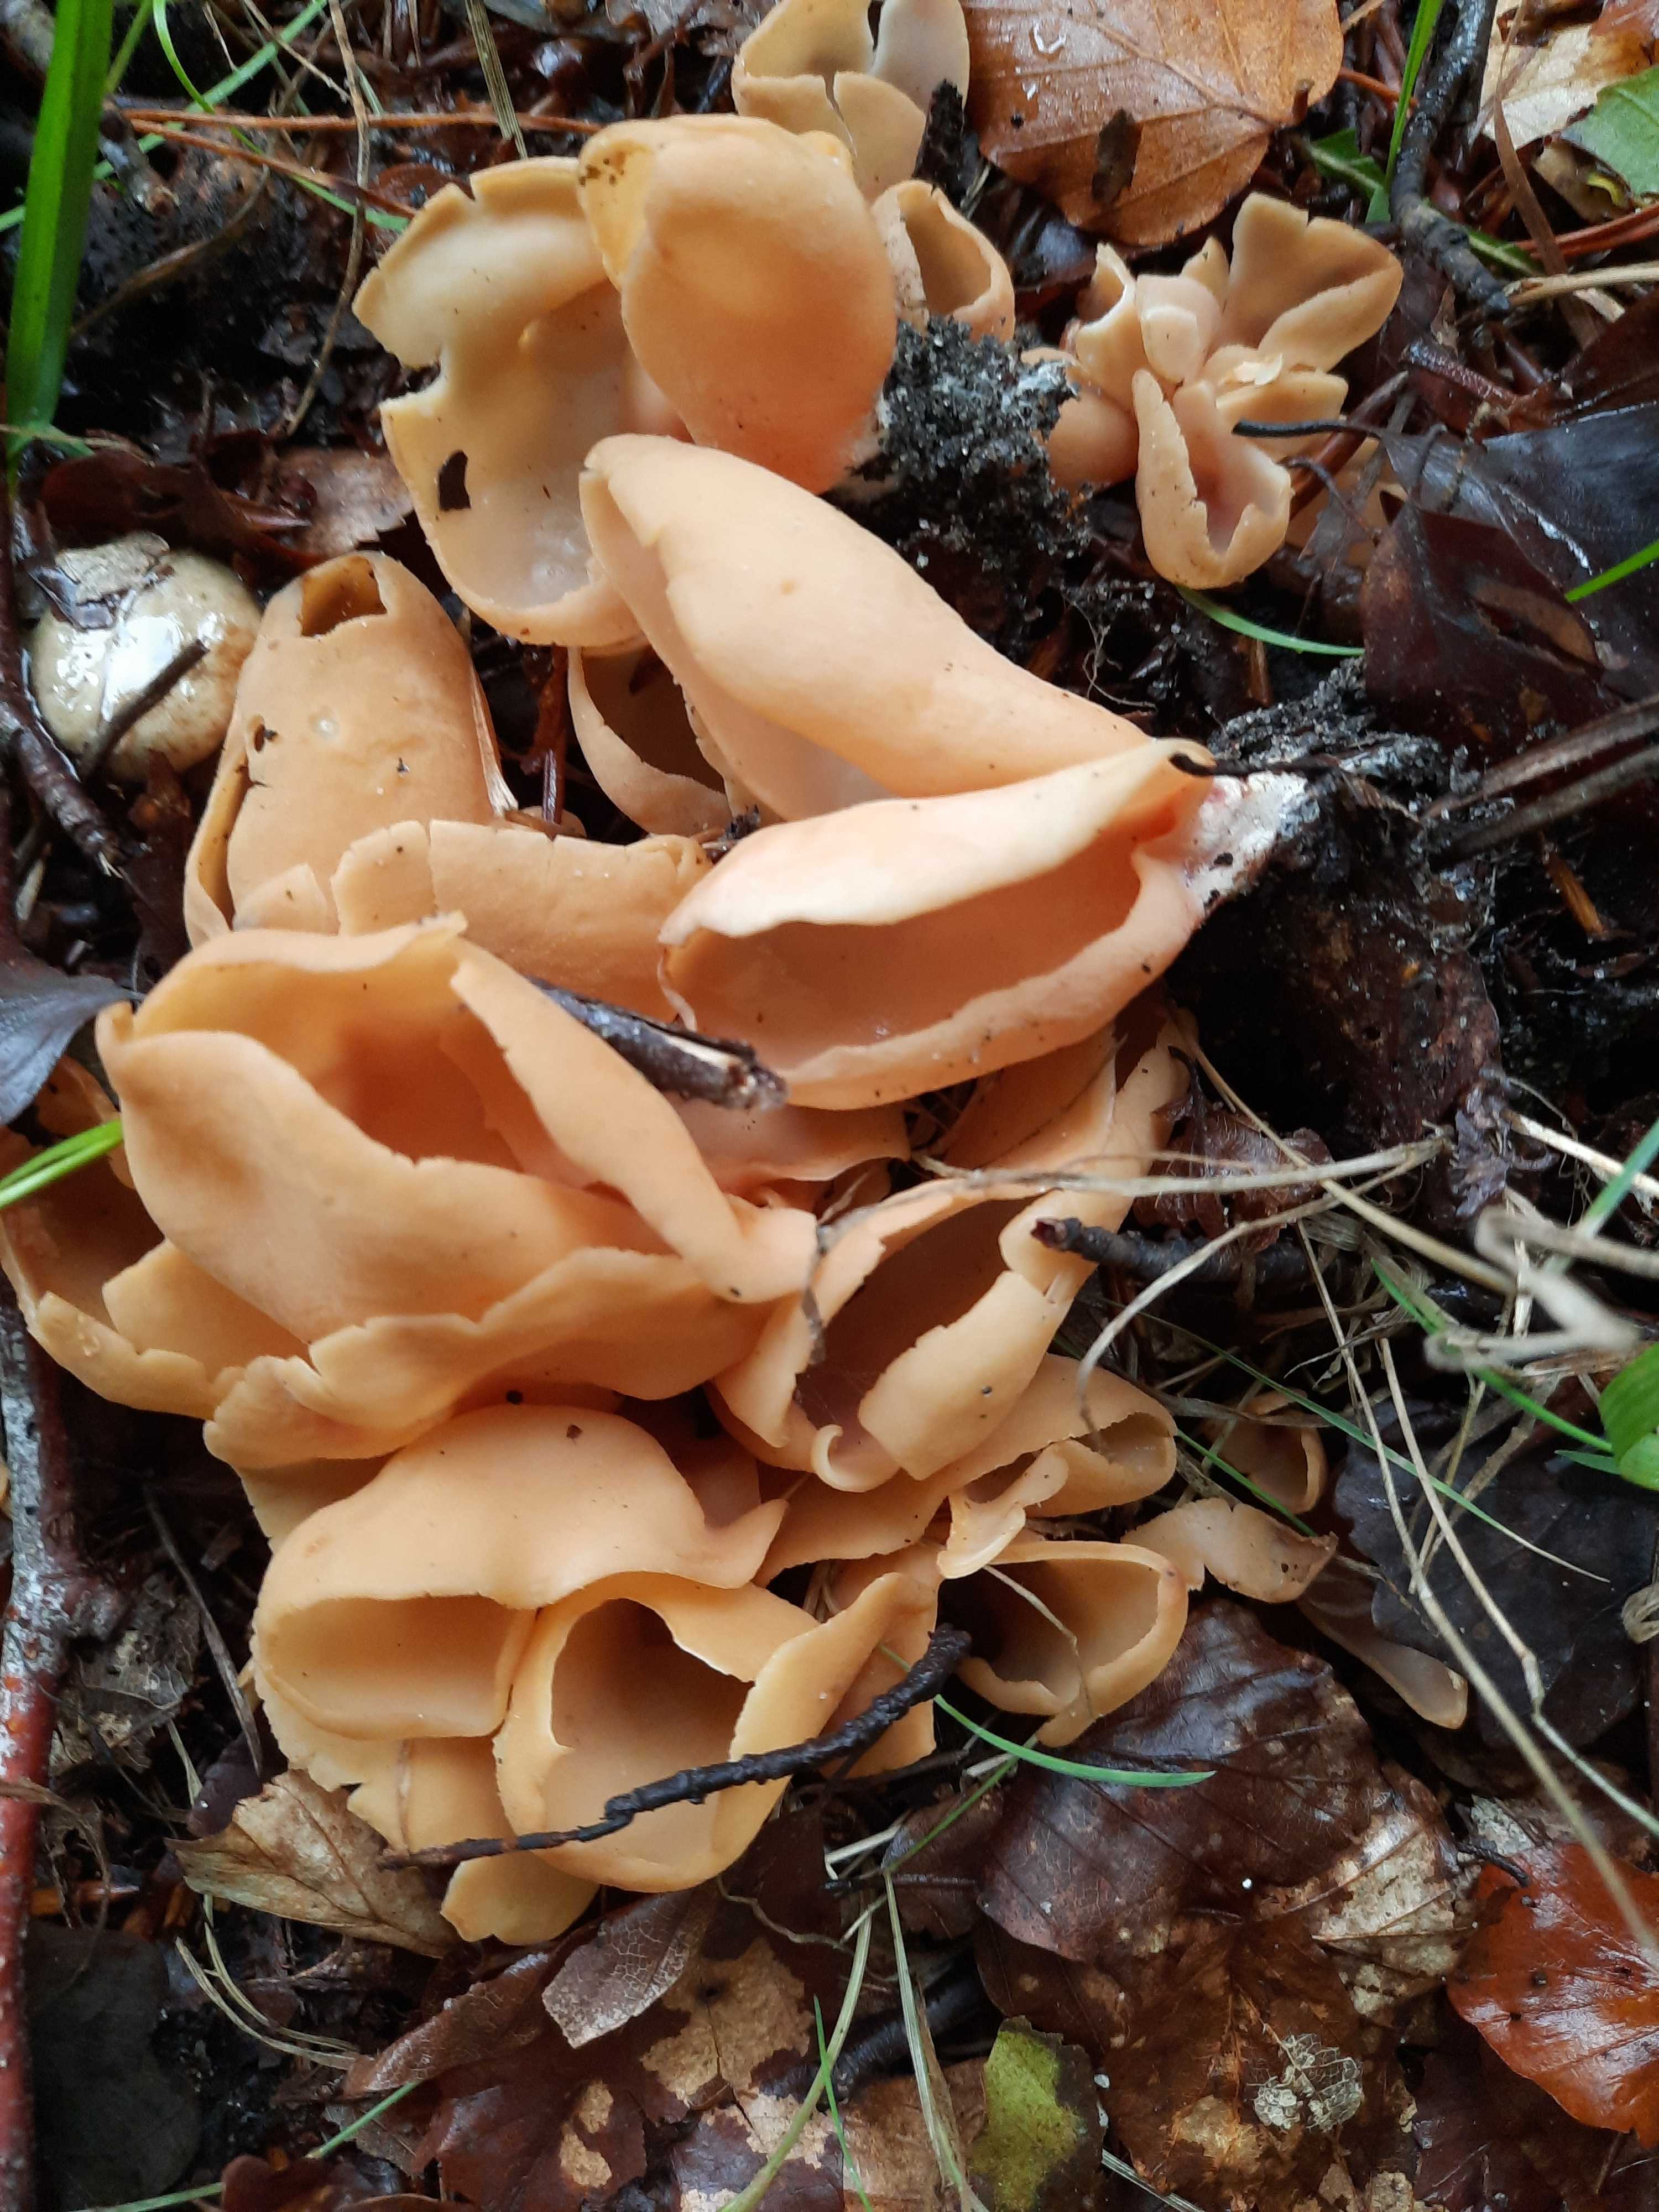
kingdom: Fungi
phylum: Ascomycota
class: Pezizomycetes
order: Pezizales
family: Otideaceae
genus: Otidea
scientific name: Otidea onotica
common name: æsel-ørebæger
